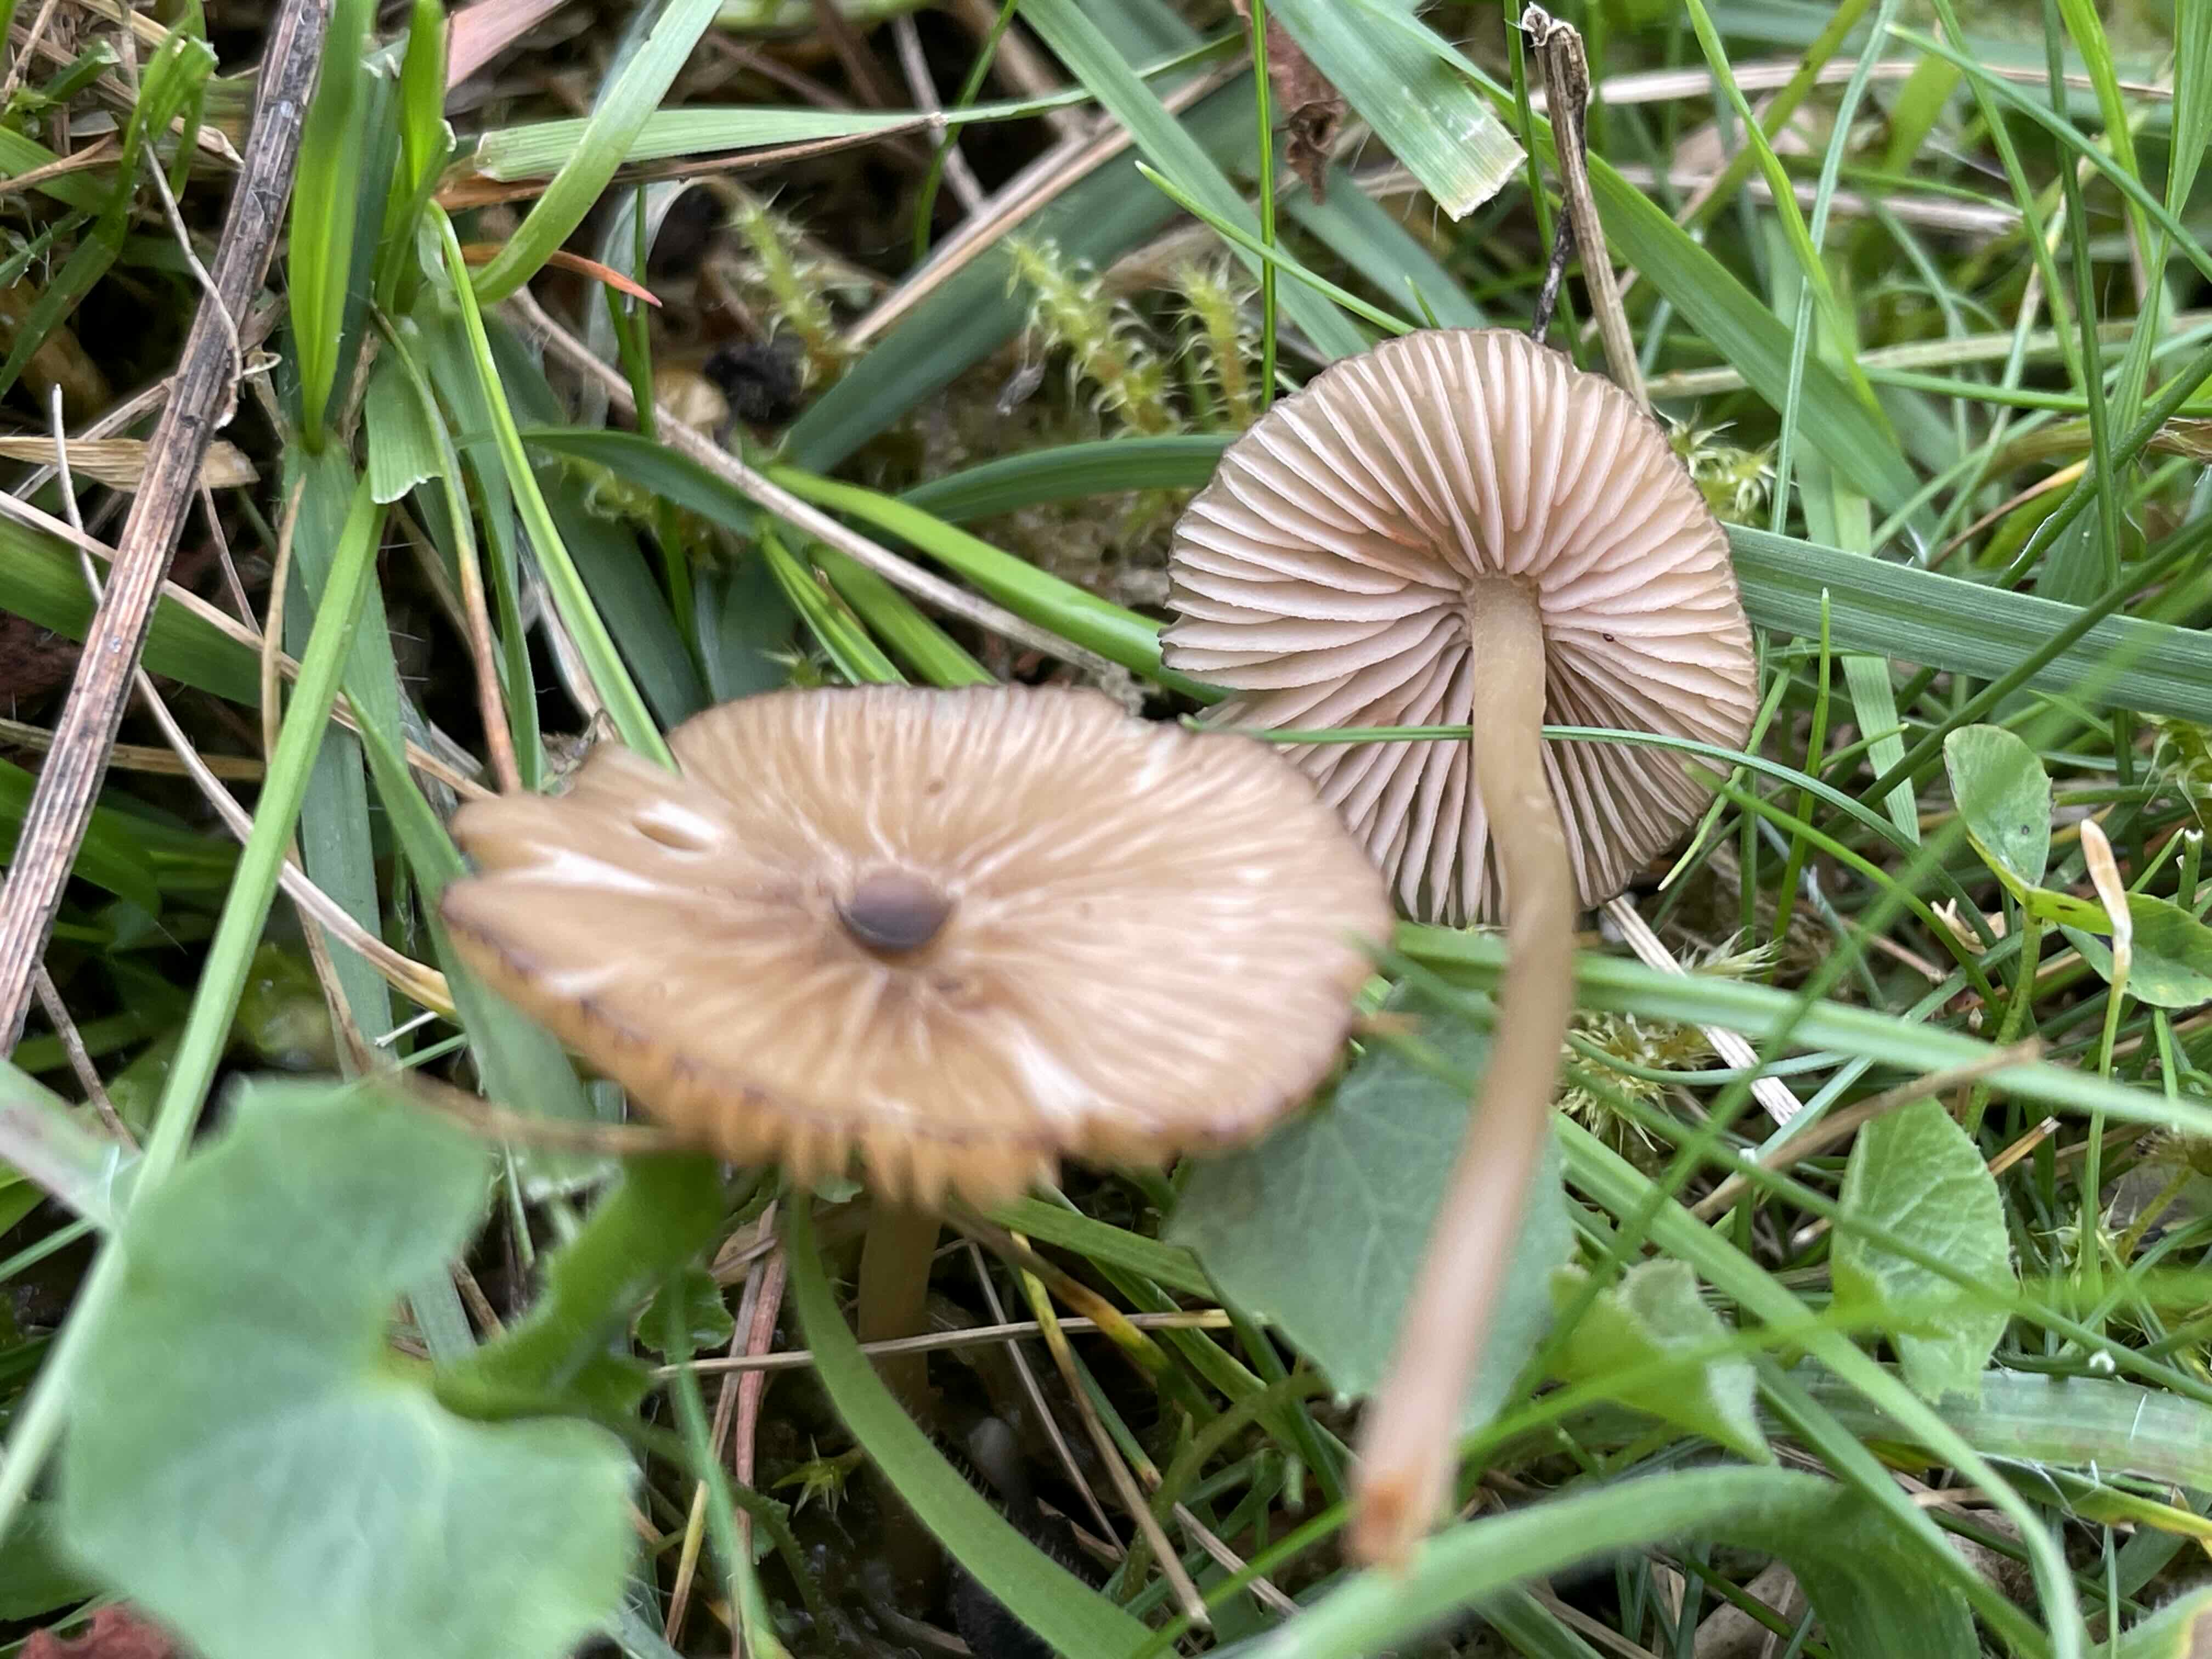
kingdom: Fungi
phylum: Basidiomycota
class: Agaricomycetes
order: Agaricales
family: Entolomataceae
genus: Entoloma
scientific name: Entoloma
